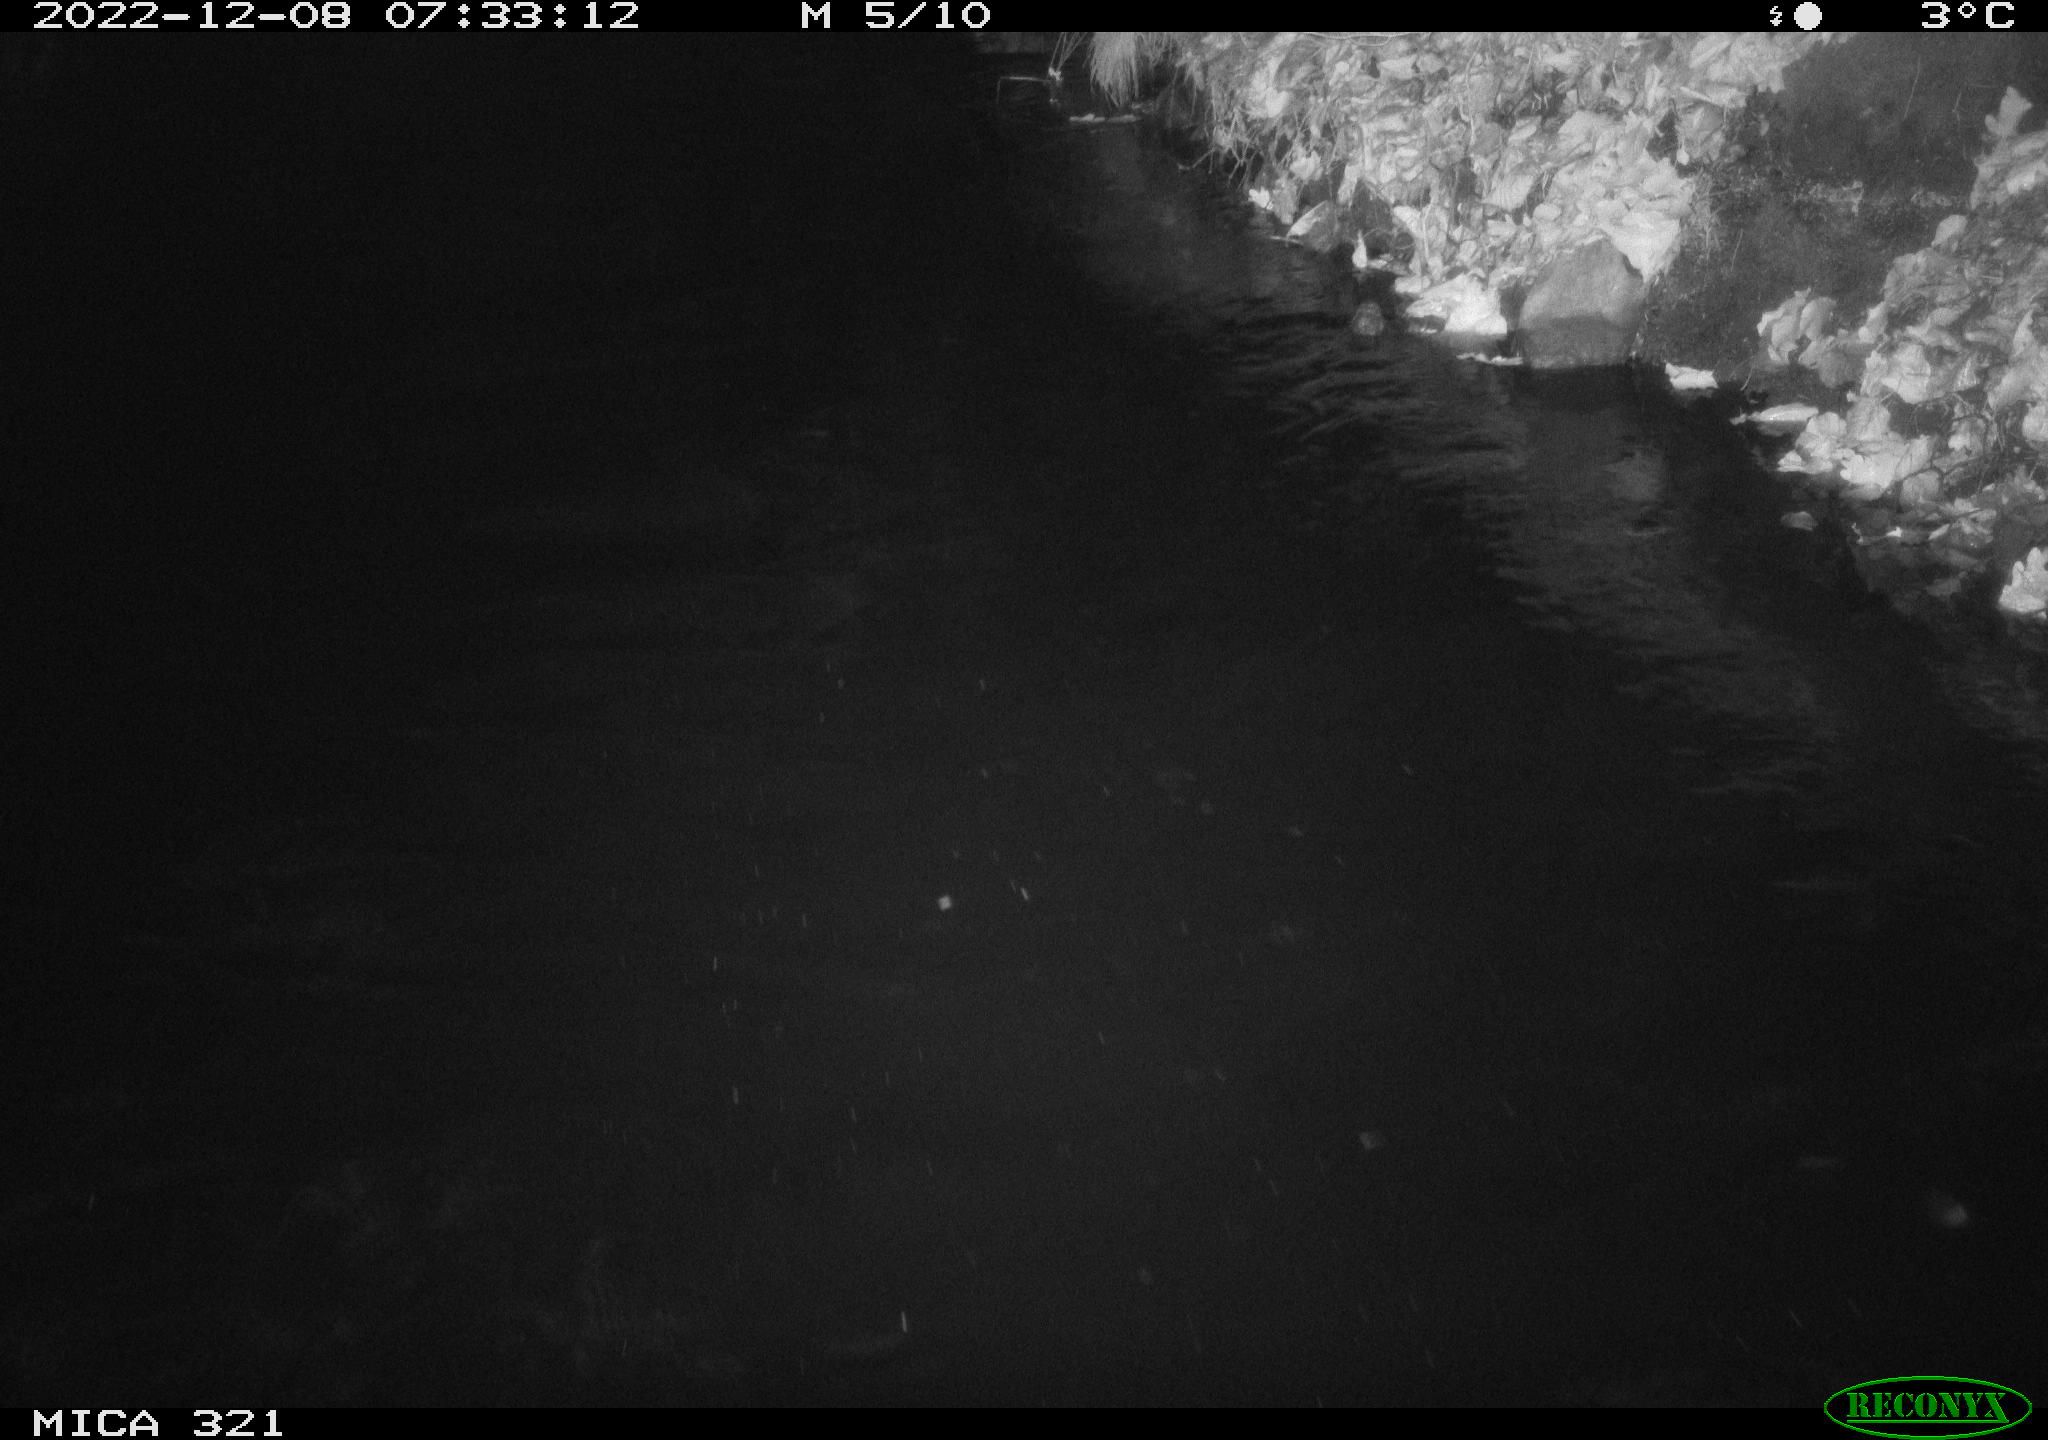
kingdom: Animalia
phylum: Chordata
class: Aves
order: Anseriformes
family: Anatidae
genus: Anas
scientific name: Anas
